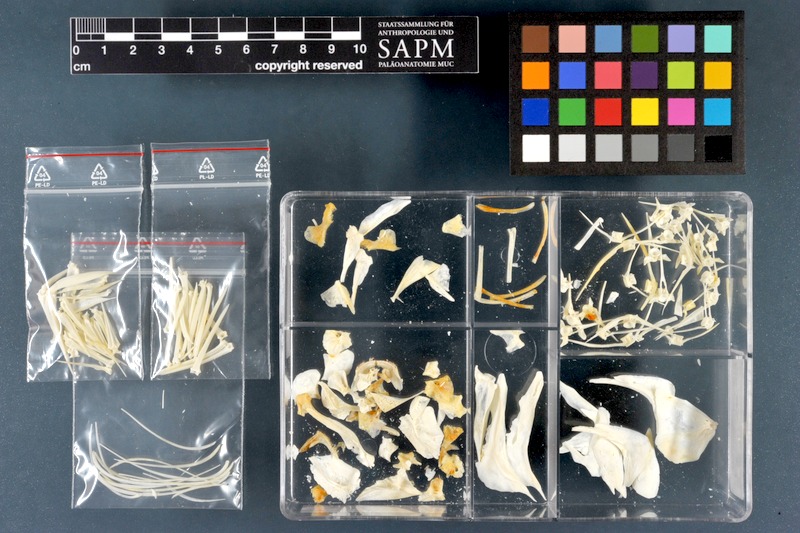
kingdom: Animalia
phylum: Chordata
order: Perciformes
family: Cichlidae
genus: Sarotherodon
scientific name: Sarotherodon galilaeus
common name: Mango tilapia
